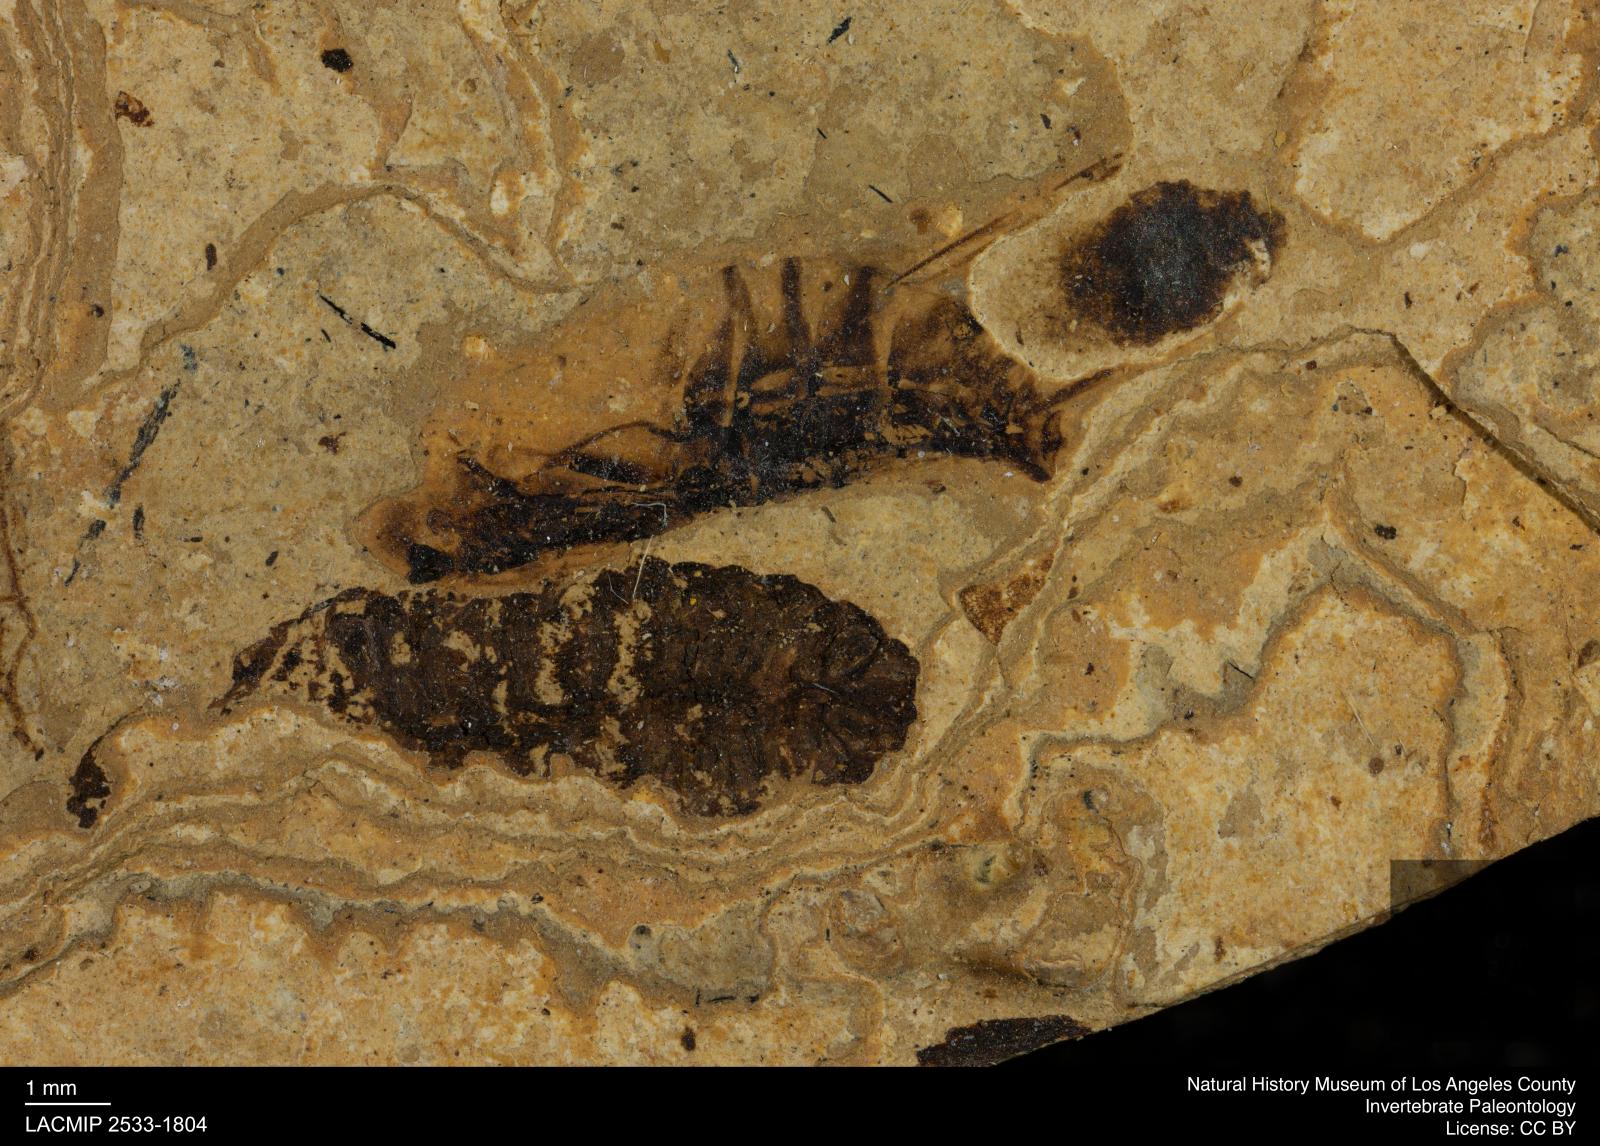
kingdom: Animalia
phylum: Arthropoda
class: Insecta
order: Hemiptera
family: Notonectidae
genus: Notonecta
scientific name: Notonecta
